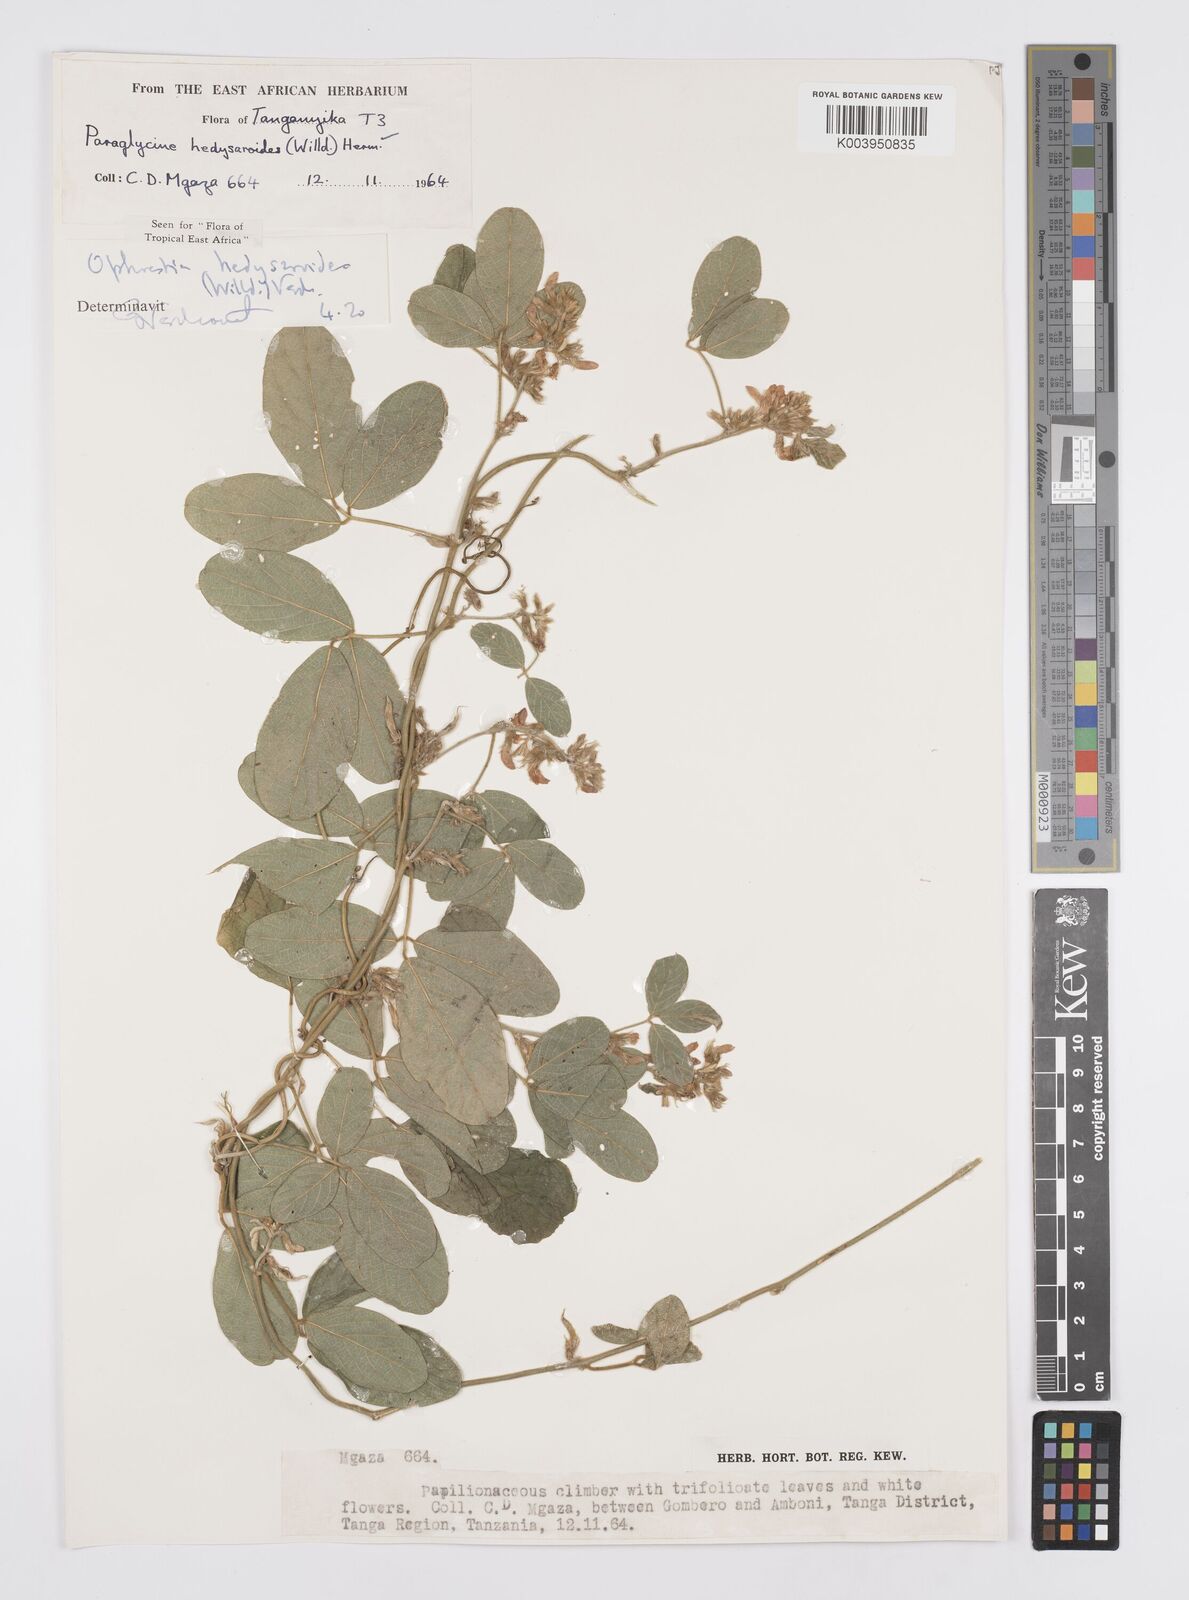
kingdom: Plantae
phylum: Tracheophyta
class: Magnoliopsida
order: Fabales
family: Fabaceae
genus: Ophrestia
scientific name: Ophrestia hedysaroides
